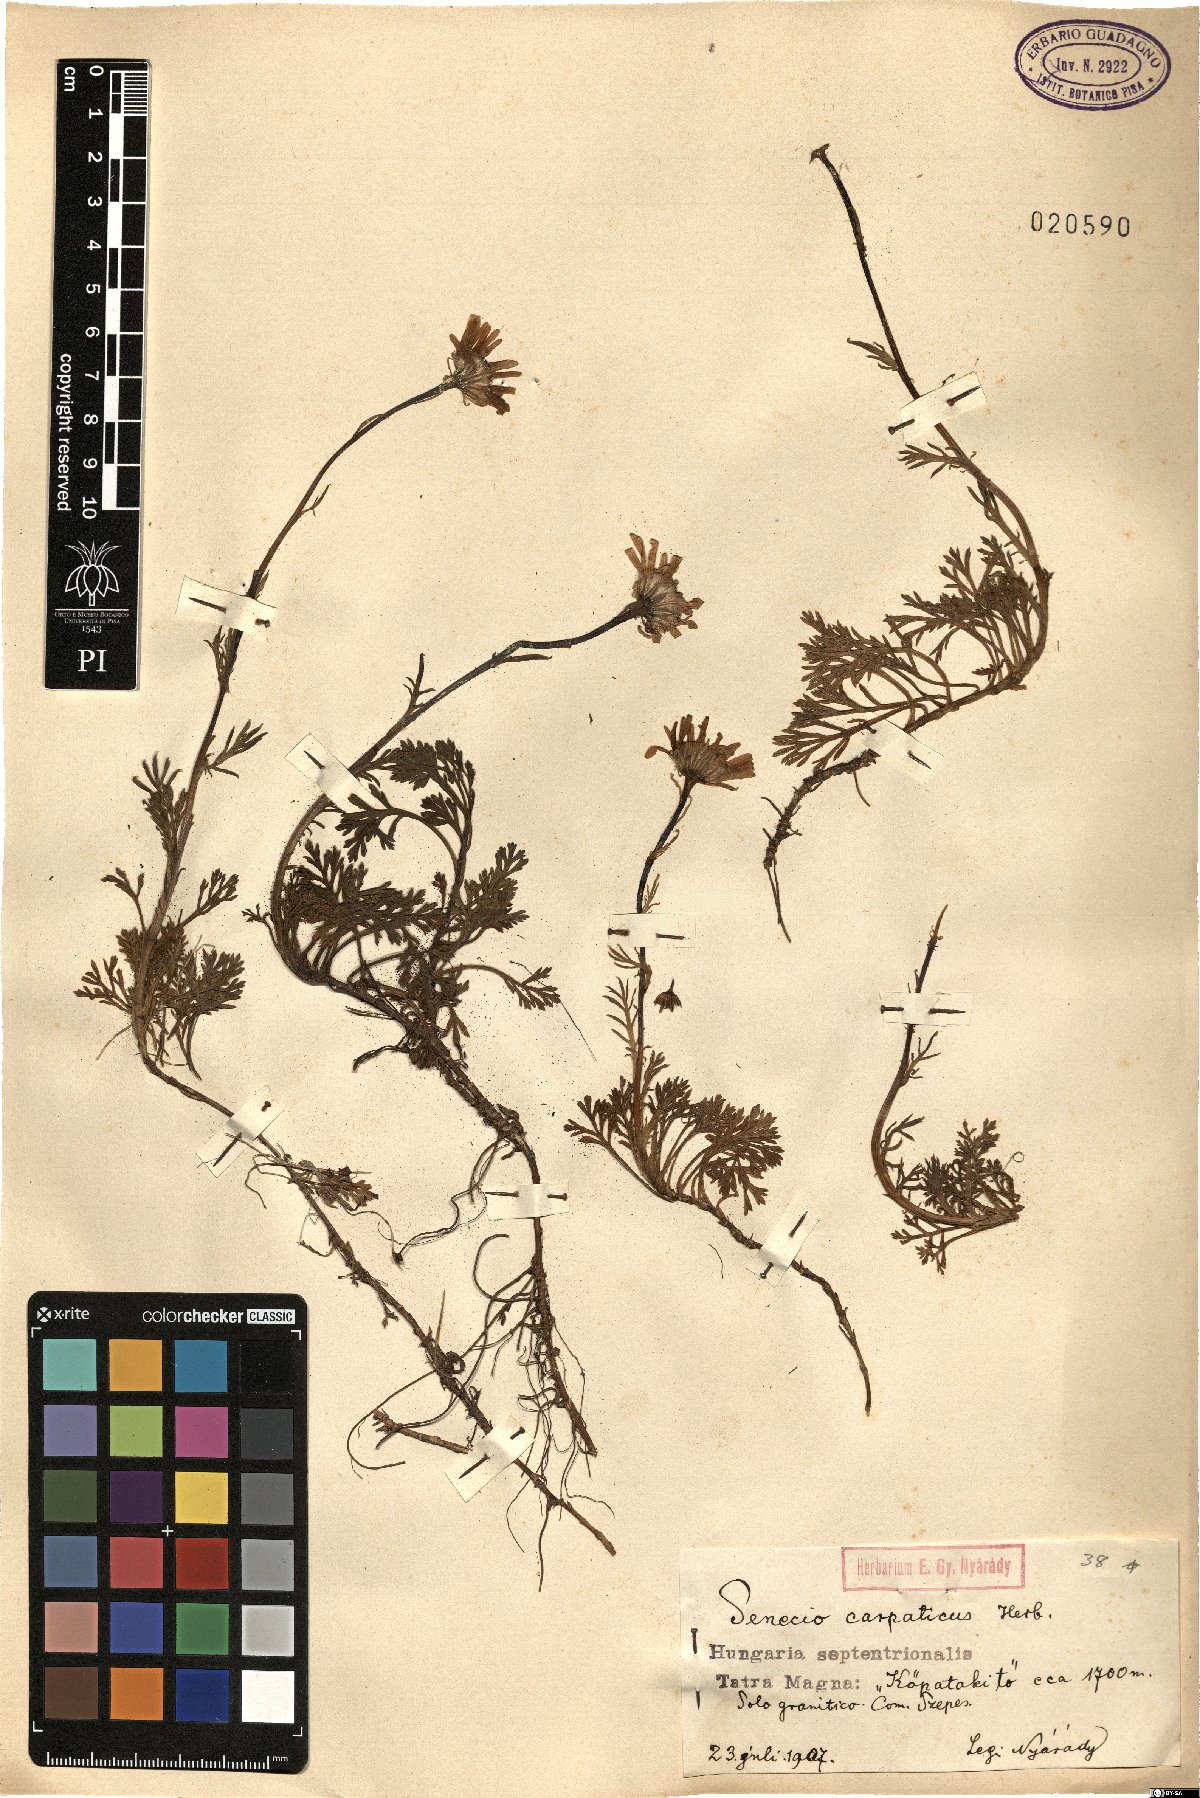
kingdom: Plantae
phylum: Tracheophyta
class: Magnoliopsida
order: Asterales
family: Asteraceae
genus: Jacobaea
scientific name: Jacobaea abrotanifolia
